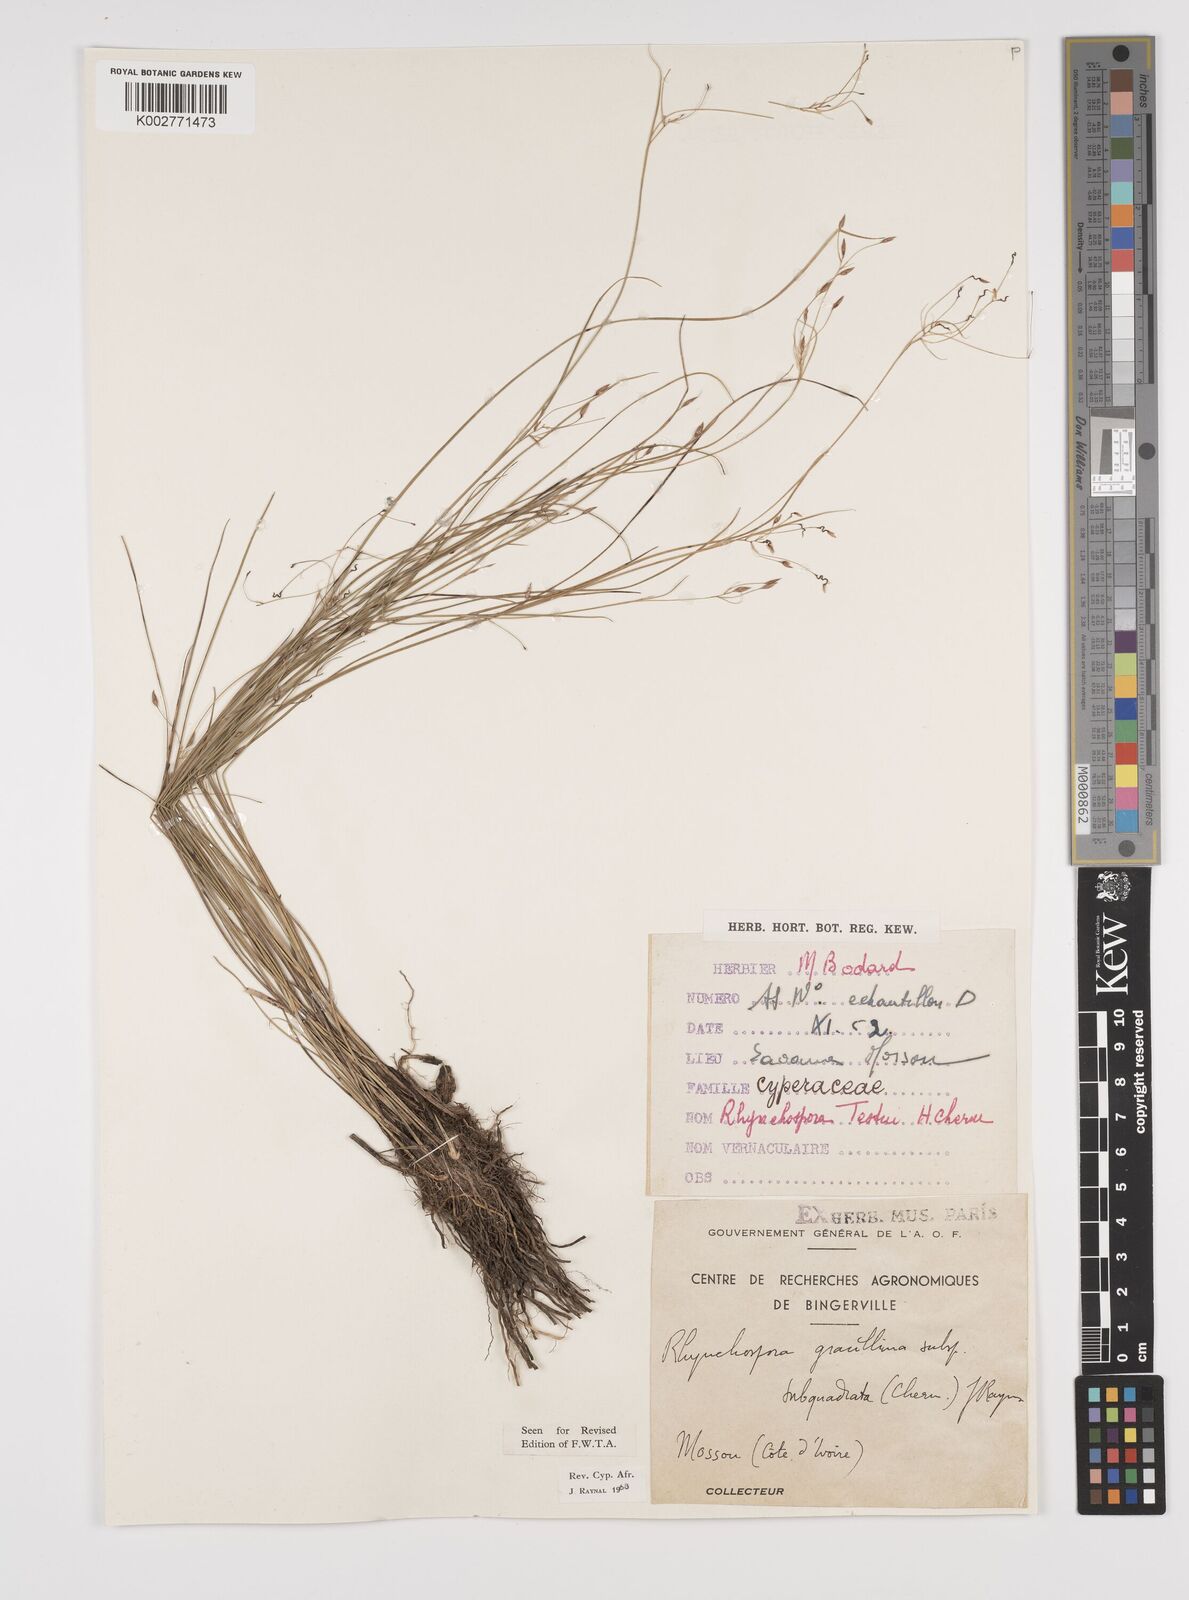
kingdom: Plantae
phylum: Tracheophyta
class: Liliopsida
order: Poales
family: Cyperaceae
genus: Rhynchospora
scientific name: Rhynchospora gracillima
